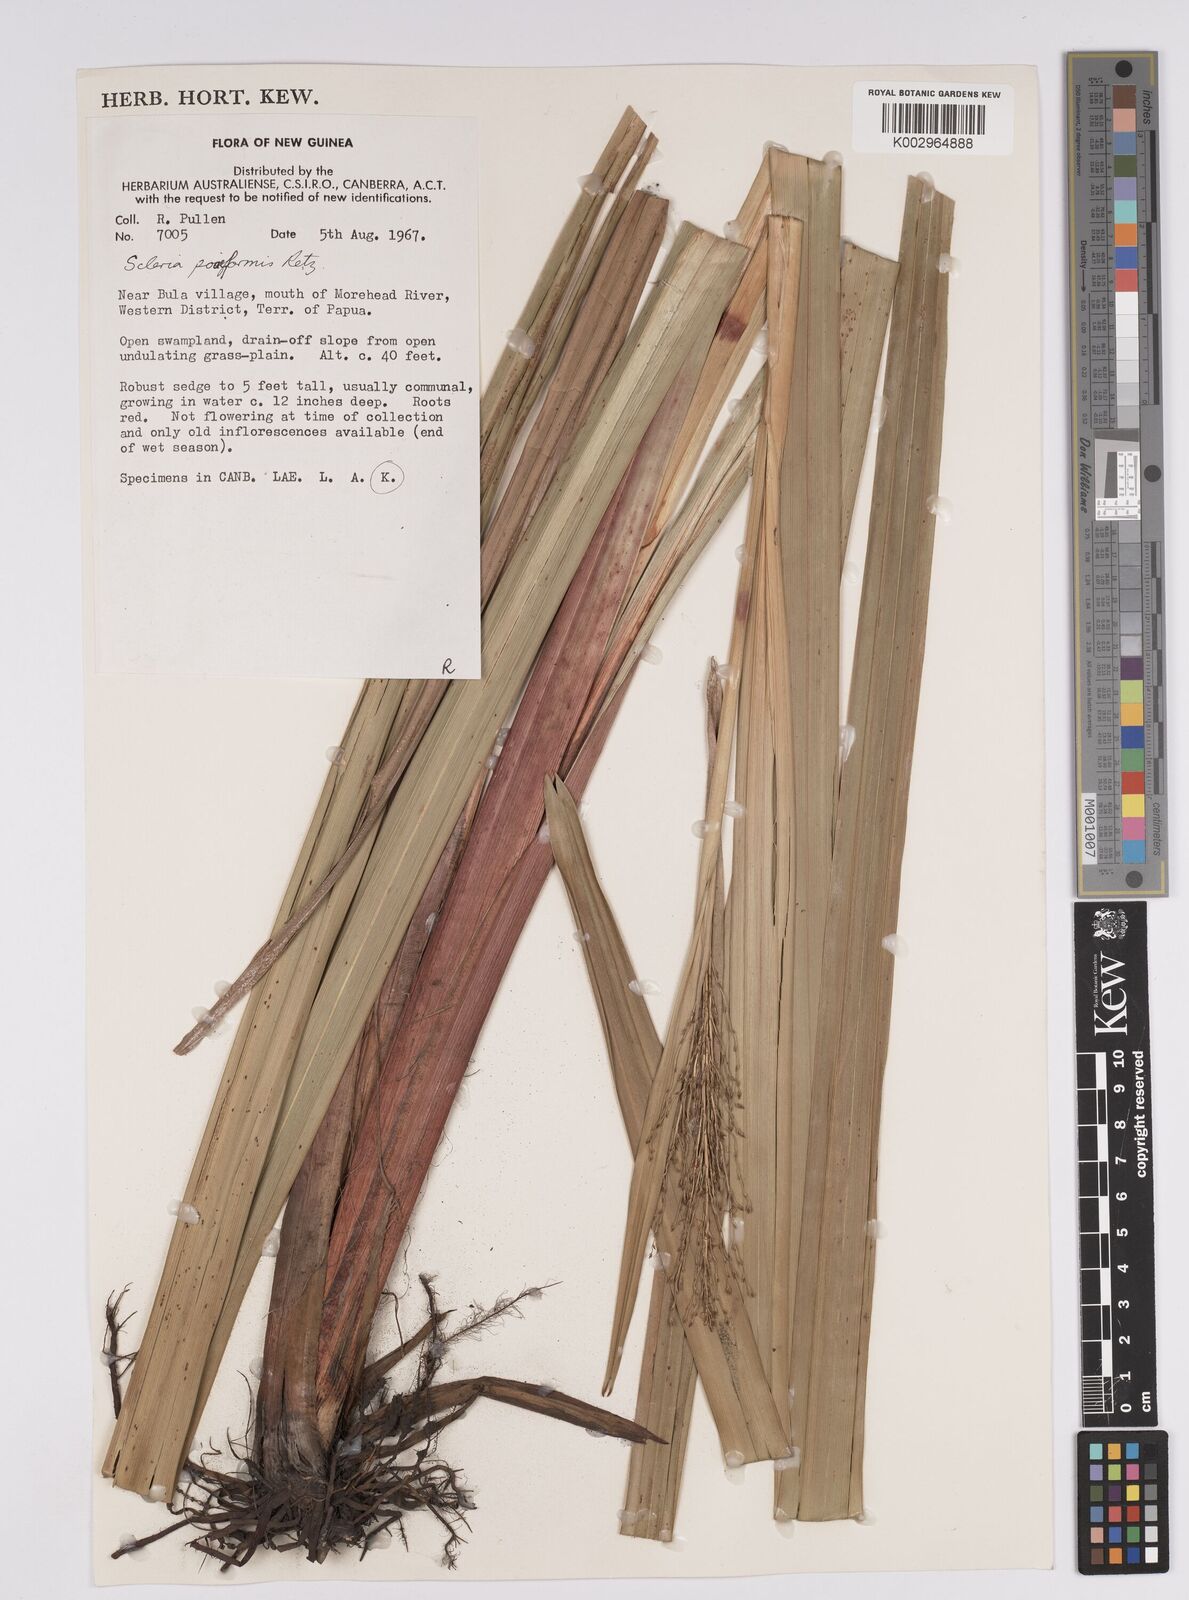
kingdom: Plantae
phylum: Tracheophyta
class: Liliopsida
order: Poales
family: Cyperaceae
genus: Scleria
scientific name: Scleria poiformis
